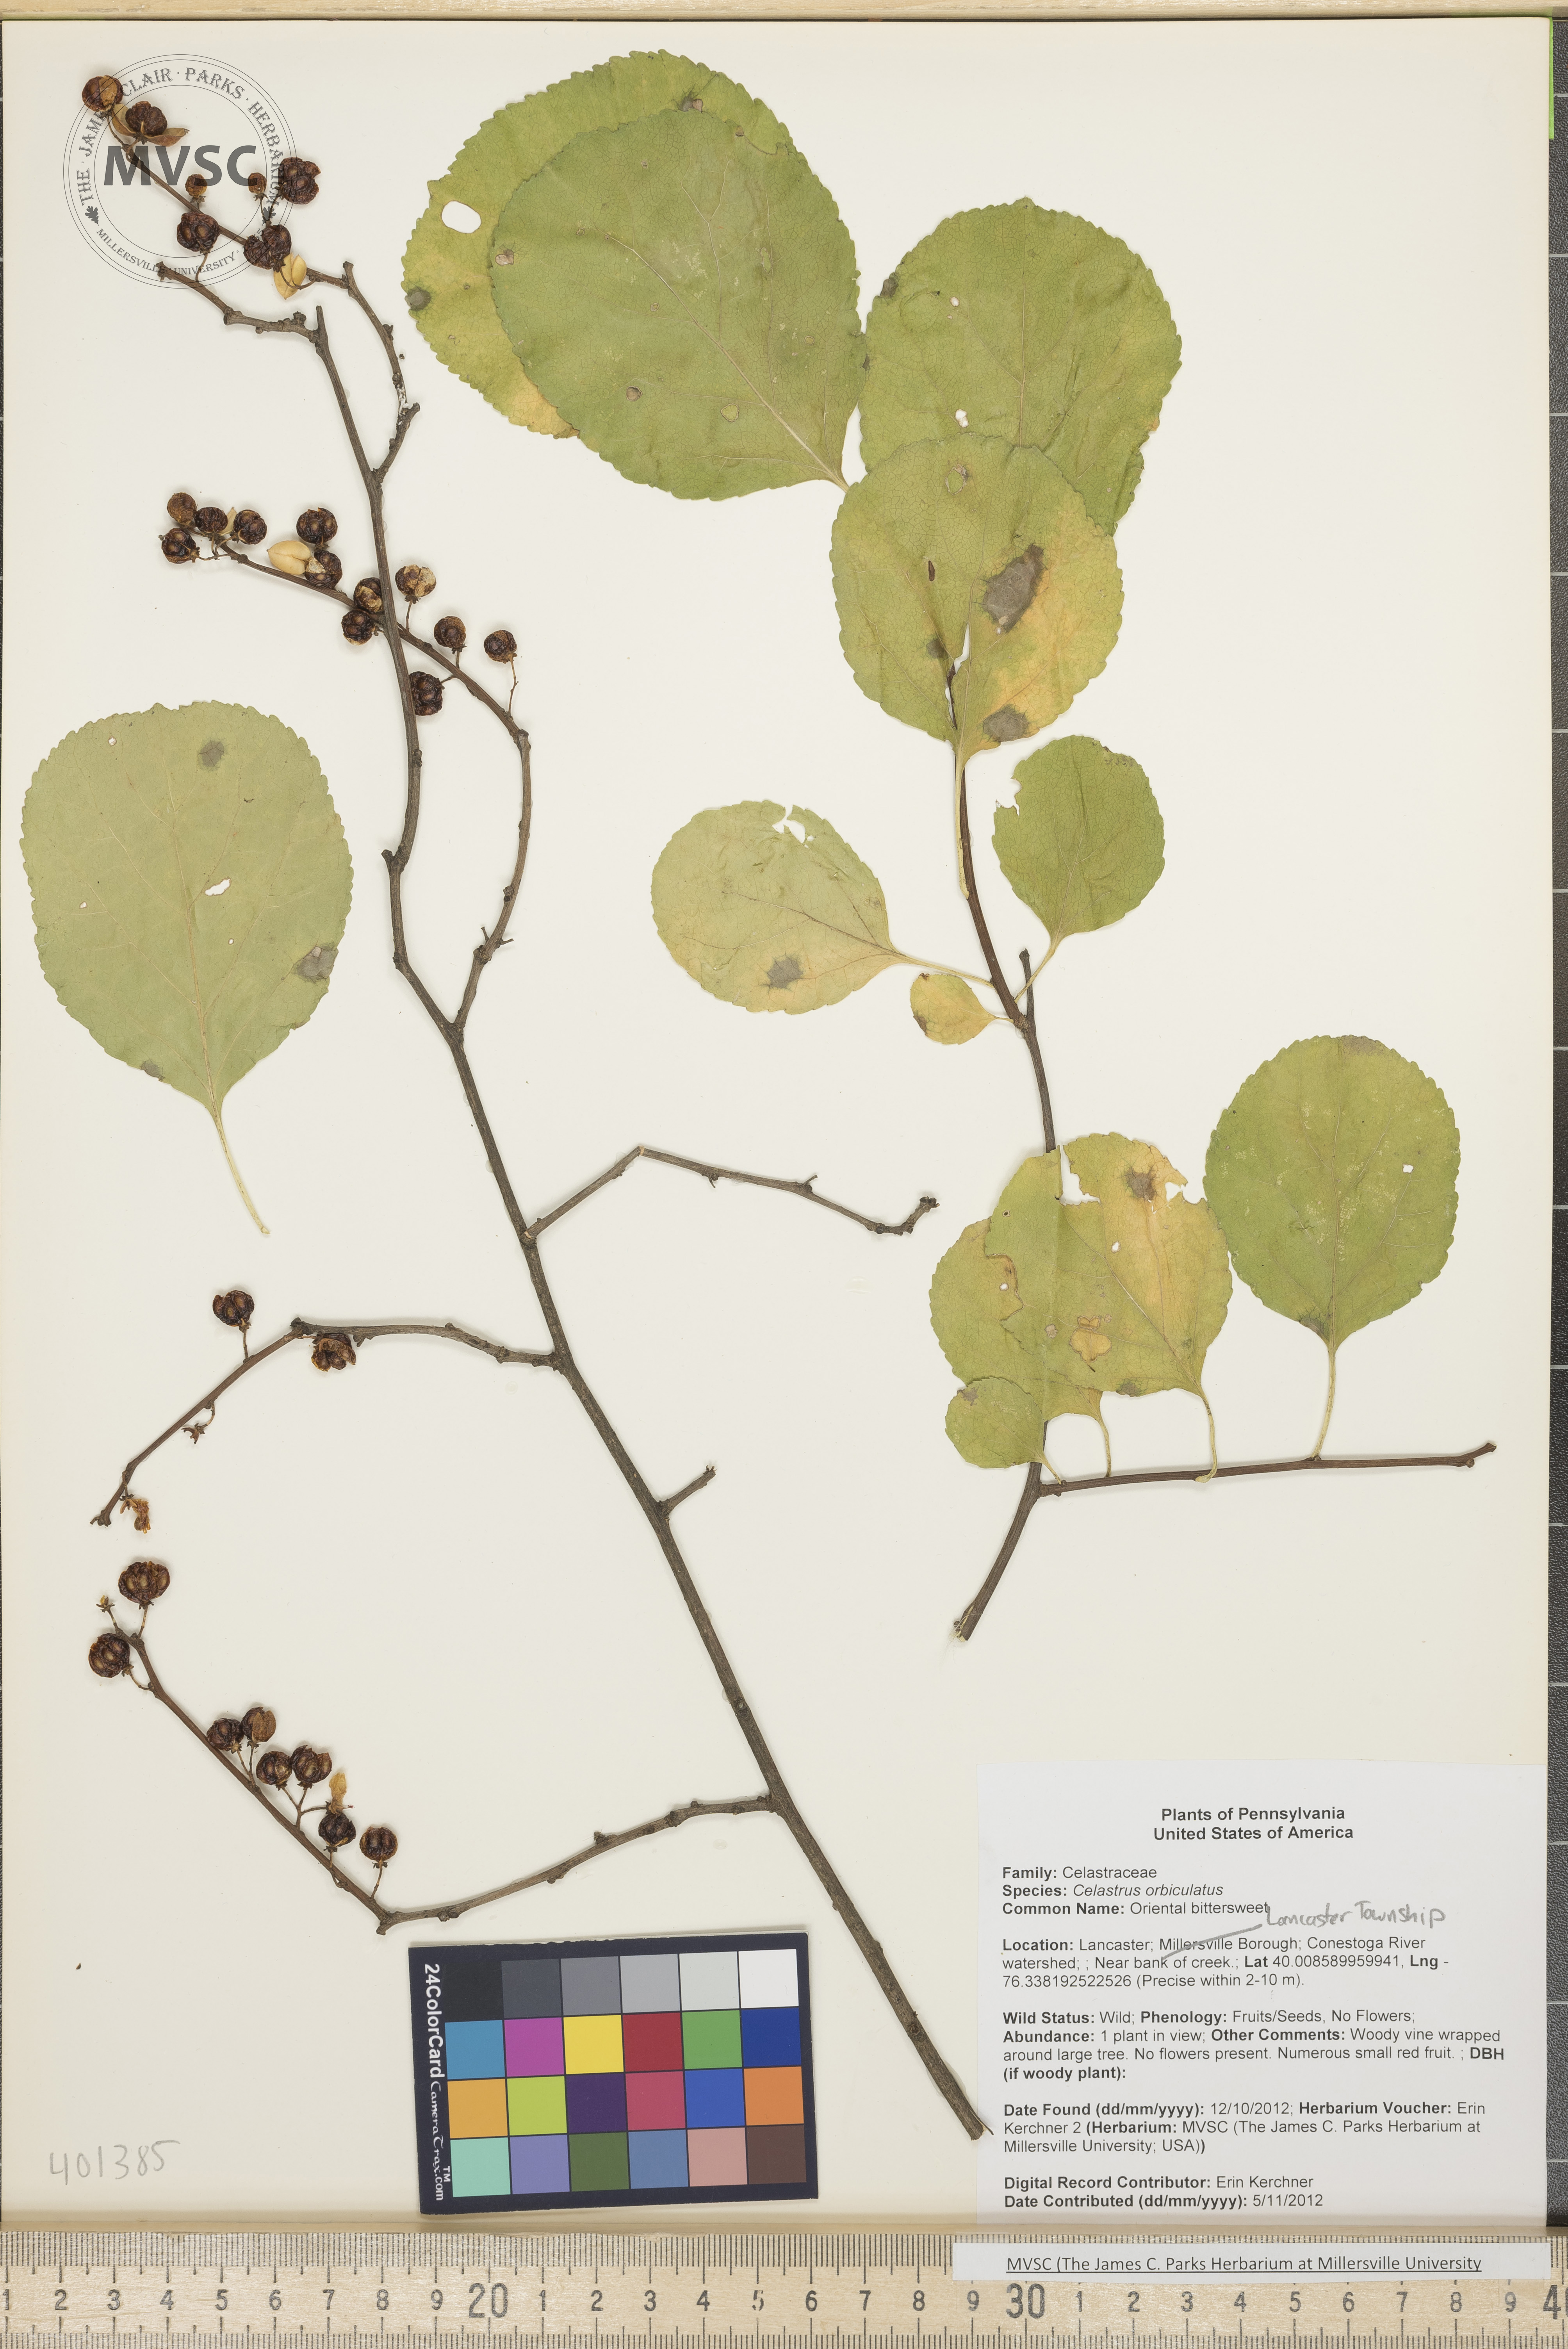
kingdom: Plantae
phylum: Tracheophyta
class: Magnoliopsida
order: Celastrales
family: Celastraceae
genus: Celastrus
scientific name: Celastrus orbiculatus
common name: Oriental Bittersweet
